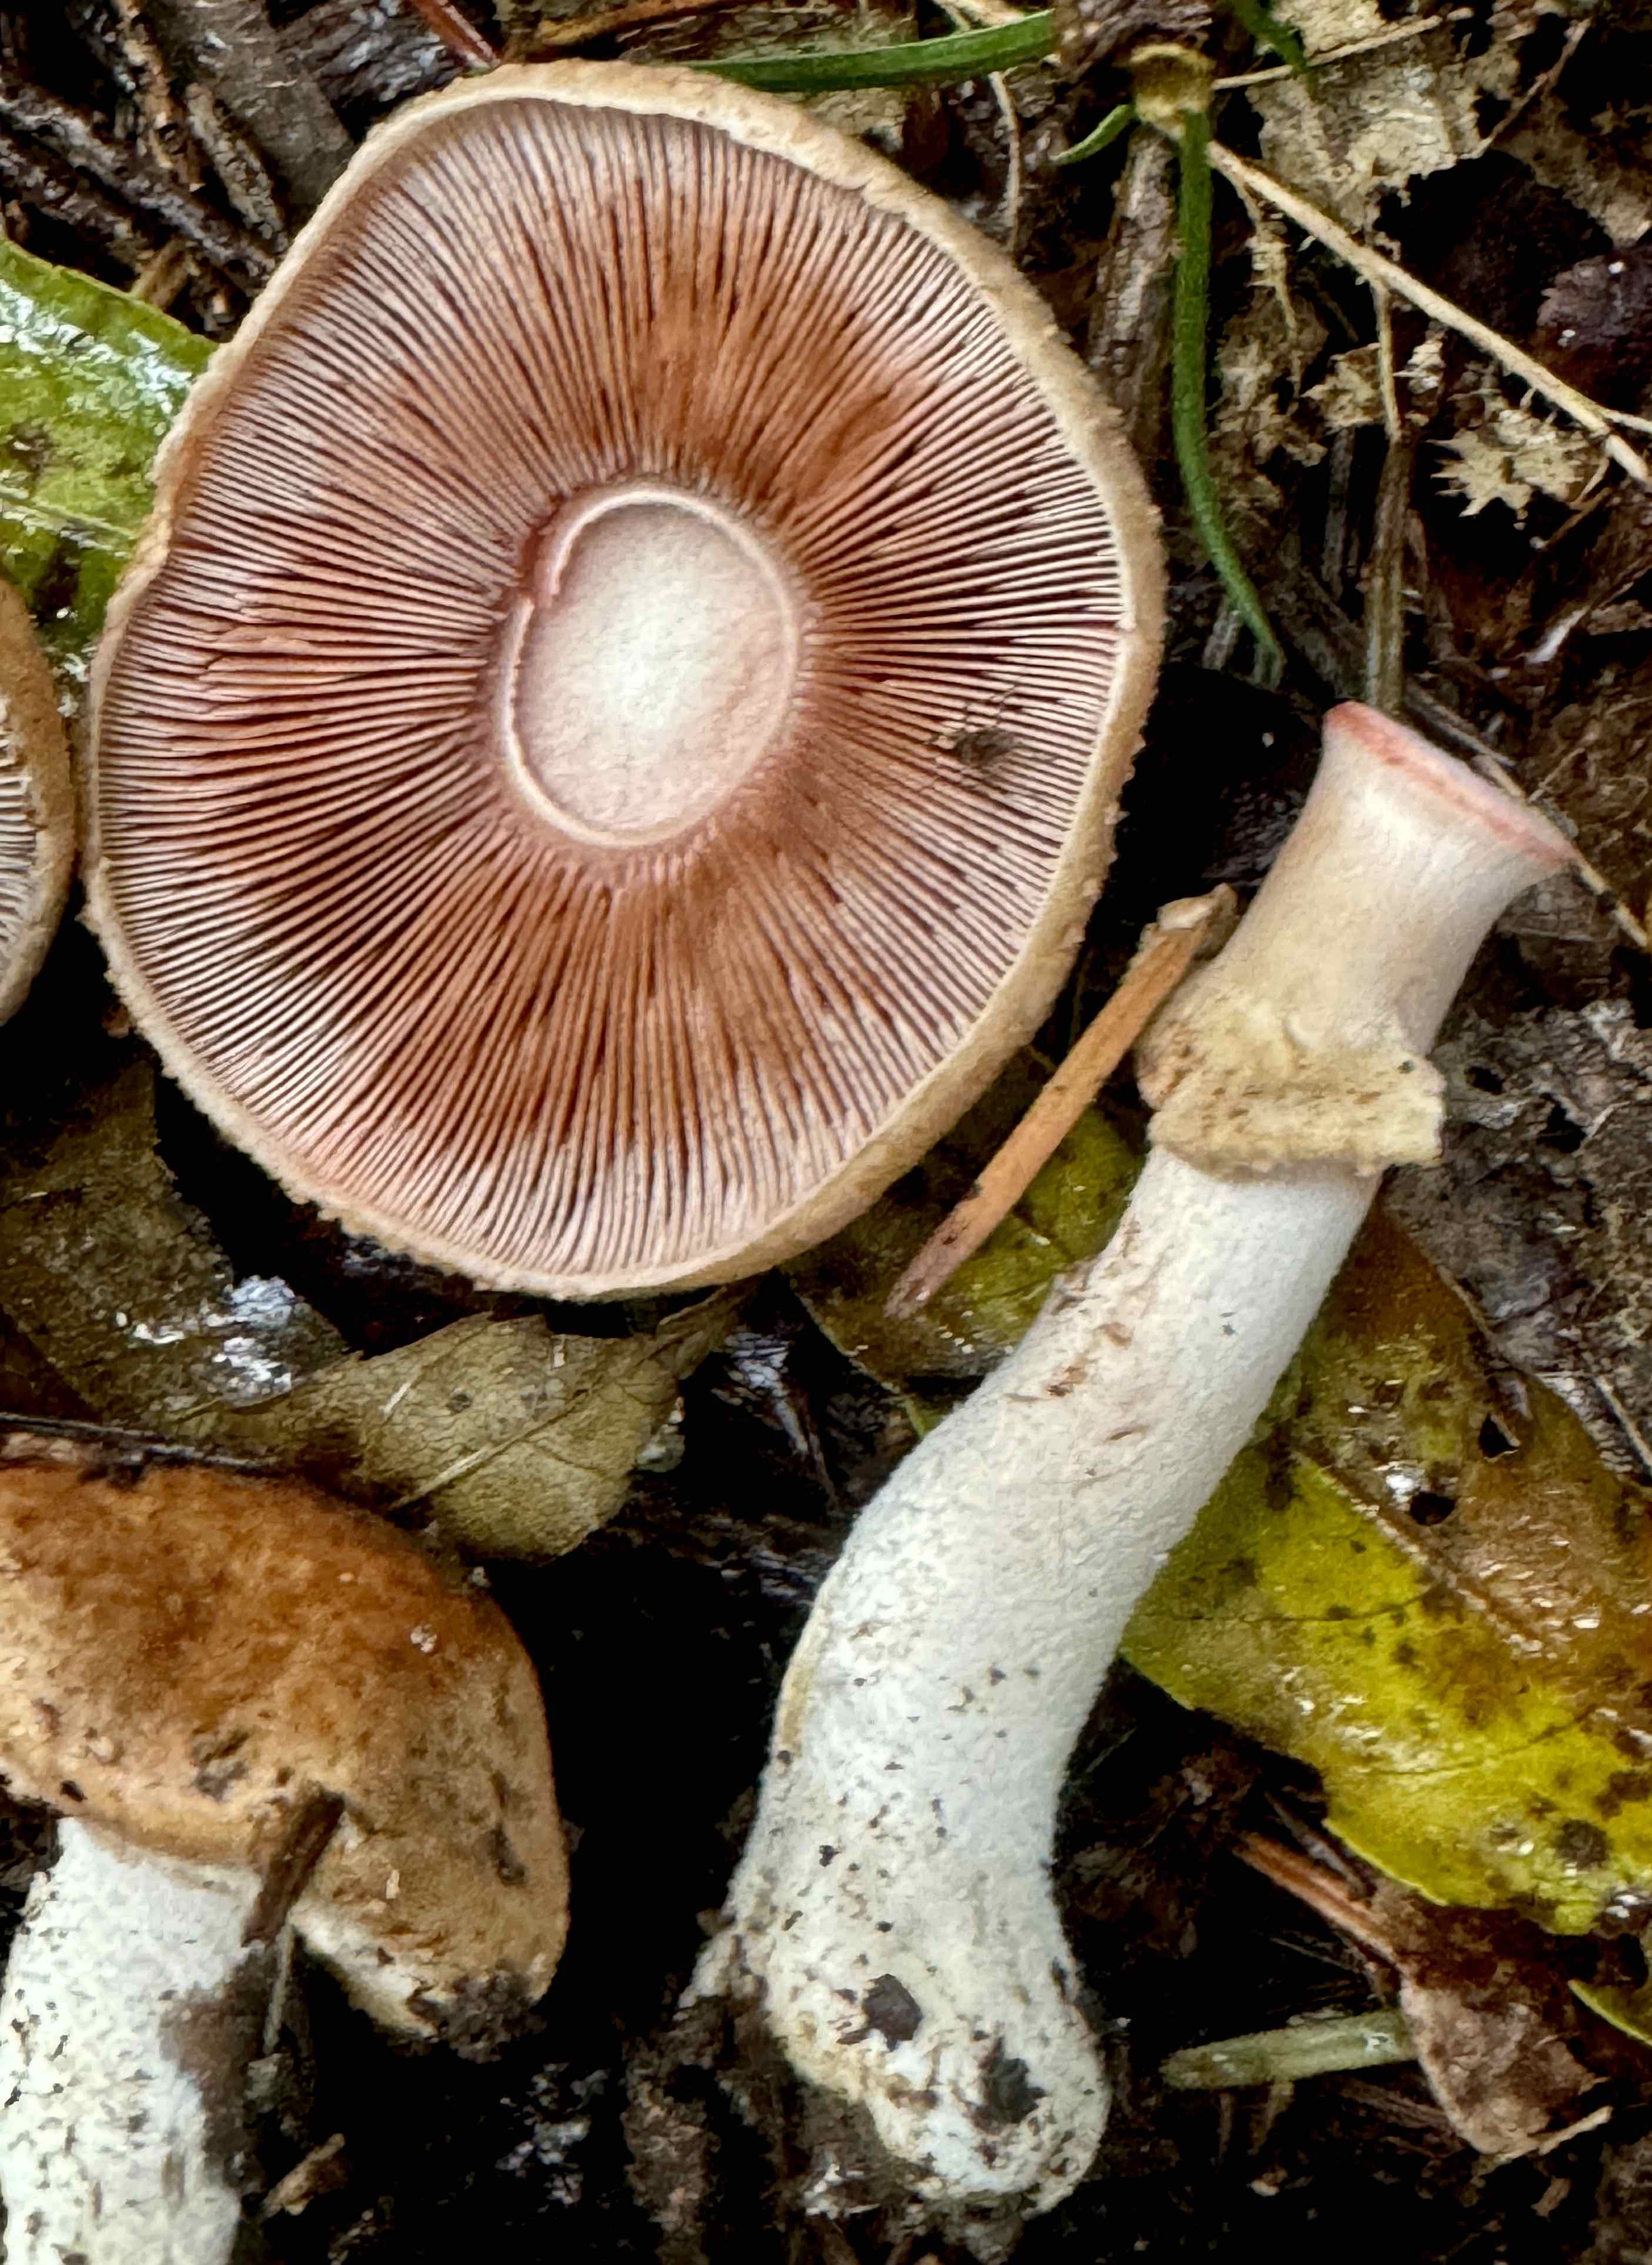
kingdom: Fungi
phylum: Basidiomycota
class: Agaricomycetes
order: Agaricales
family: Agaricaceae
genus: Agaricus
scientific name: Agaricus
